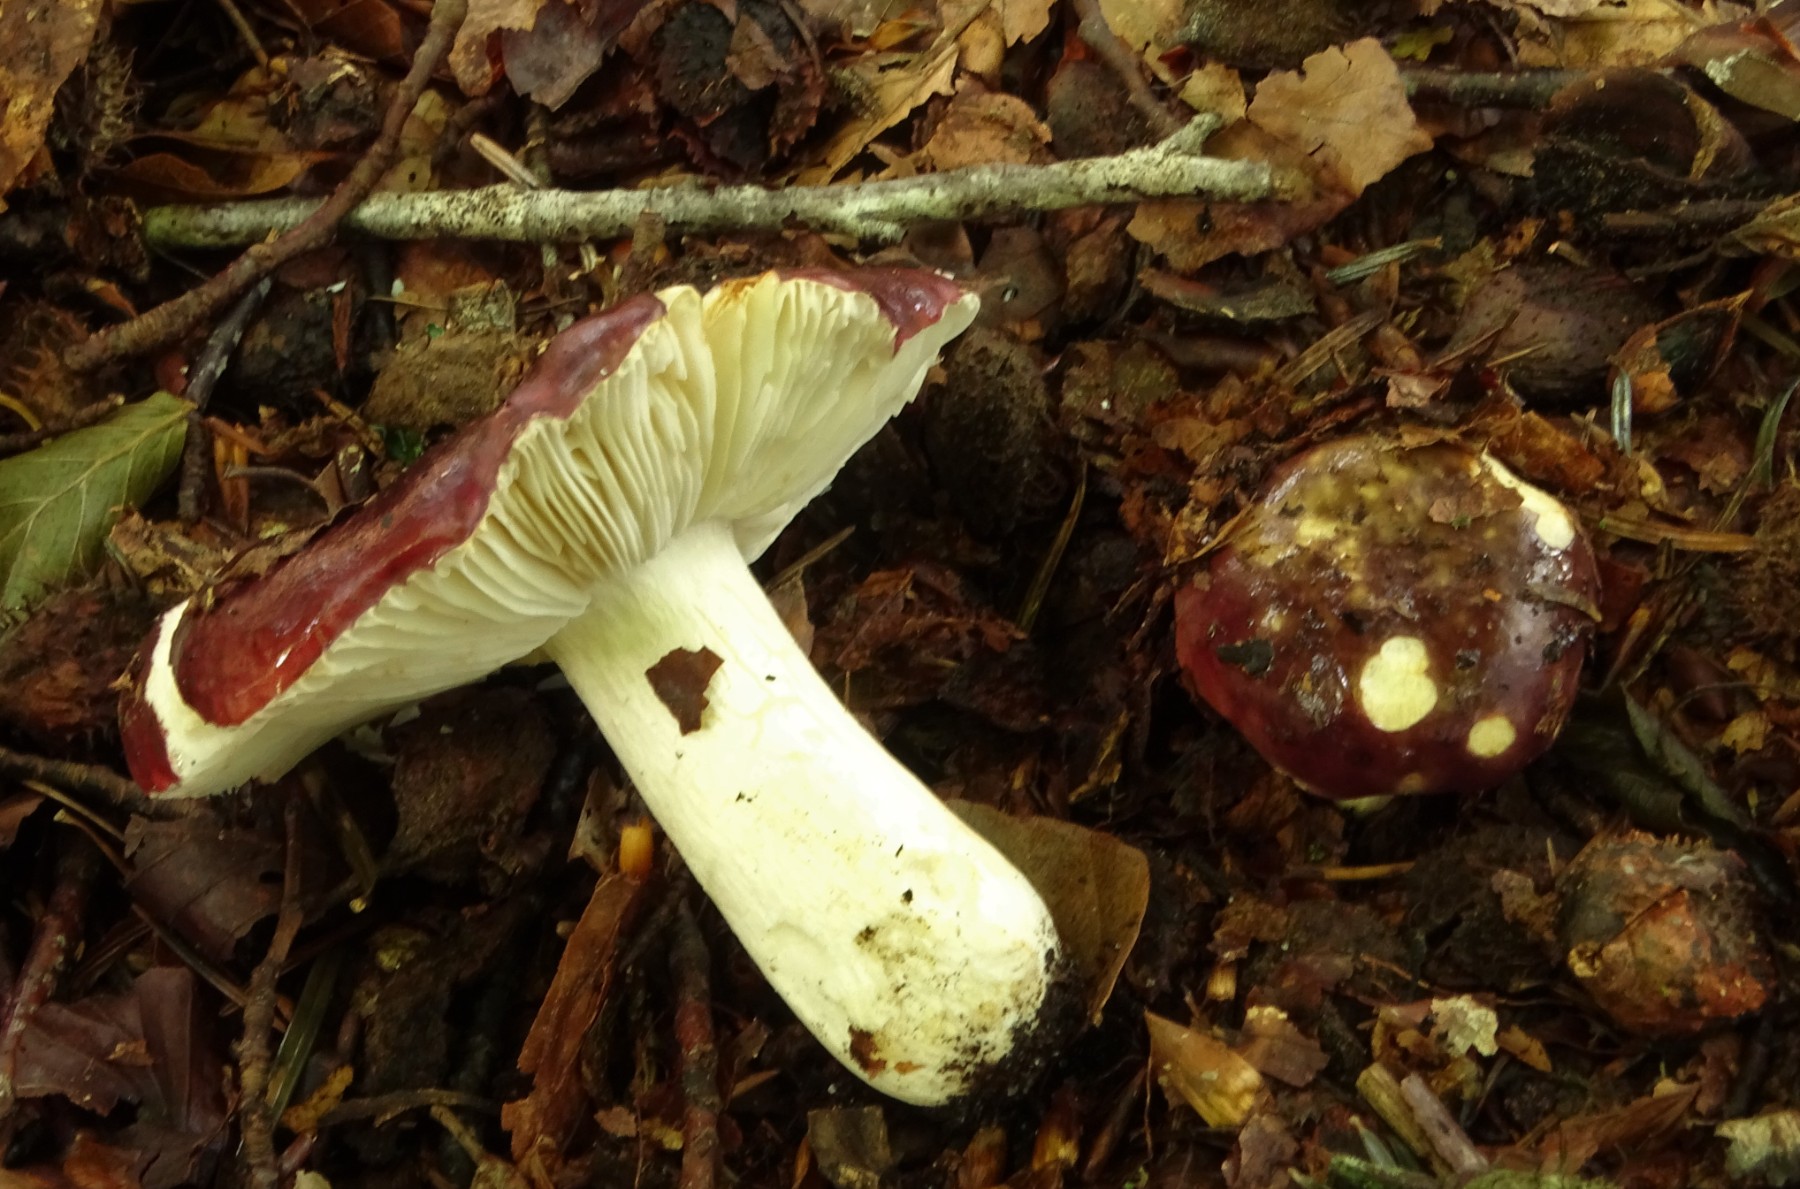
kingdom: Fungi
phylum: Basidiomycota
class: Agaricomycetes
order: Russulales
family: Russulaceae
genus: Russula
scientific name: Russula atropurpurea
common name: purpurbroget skørhat
